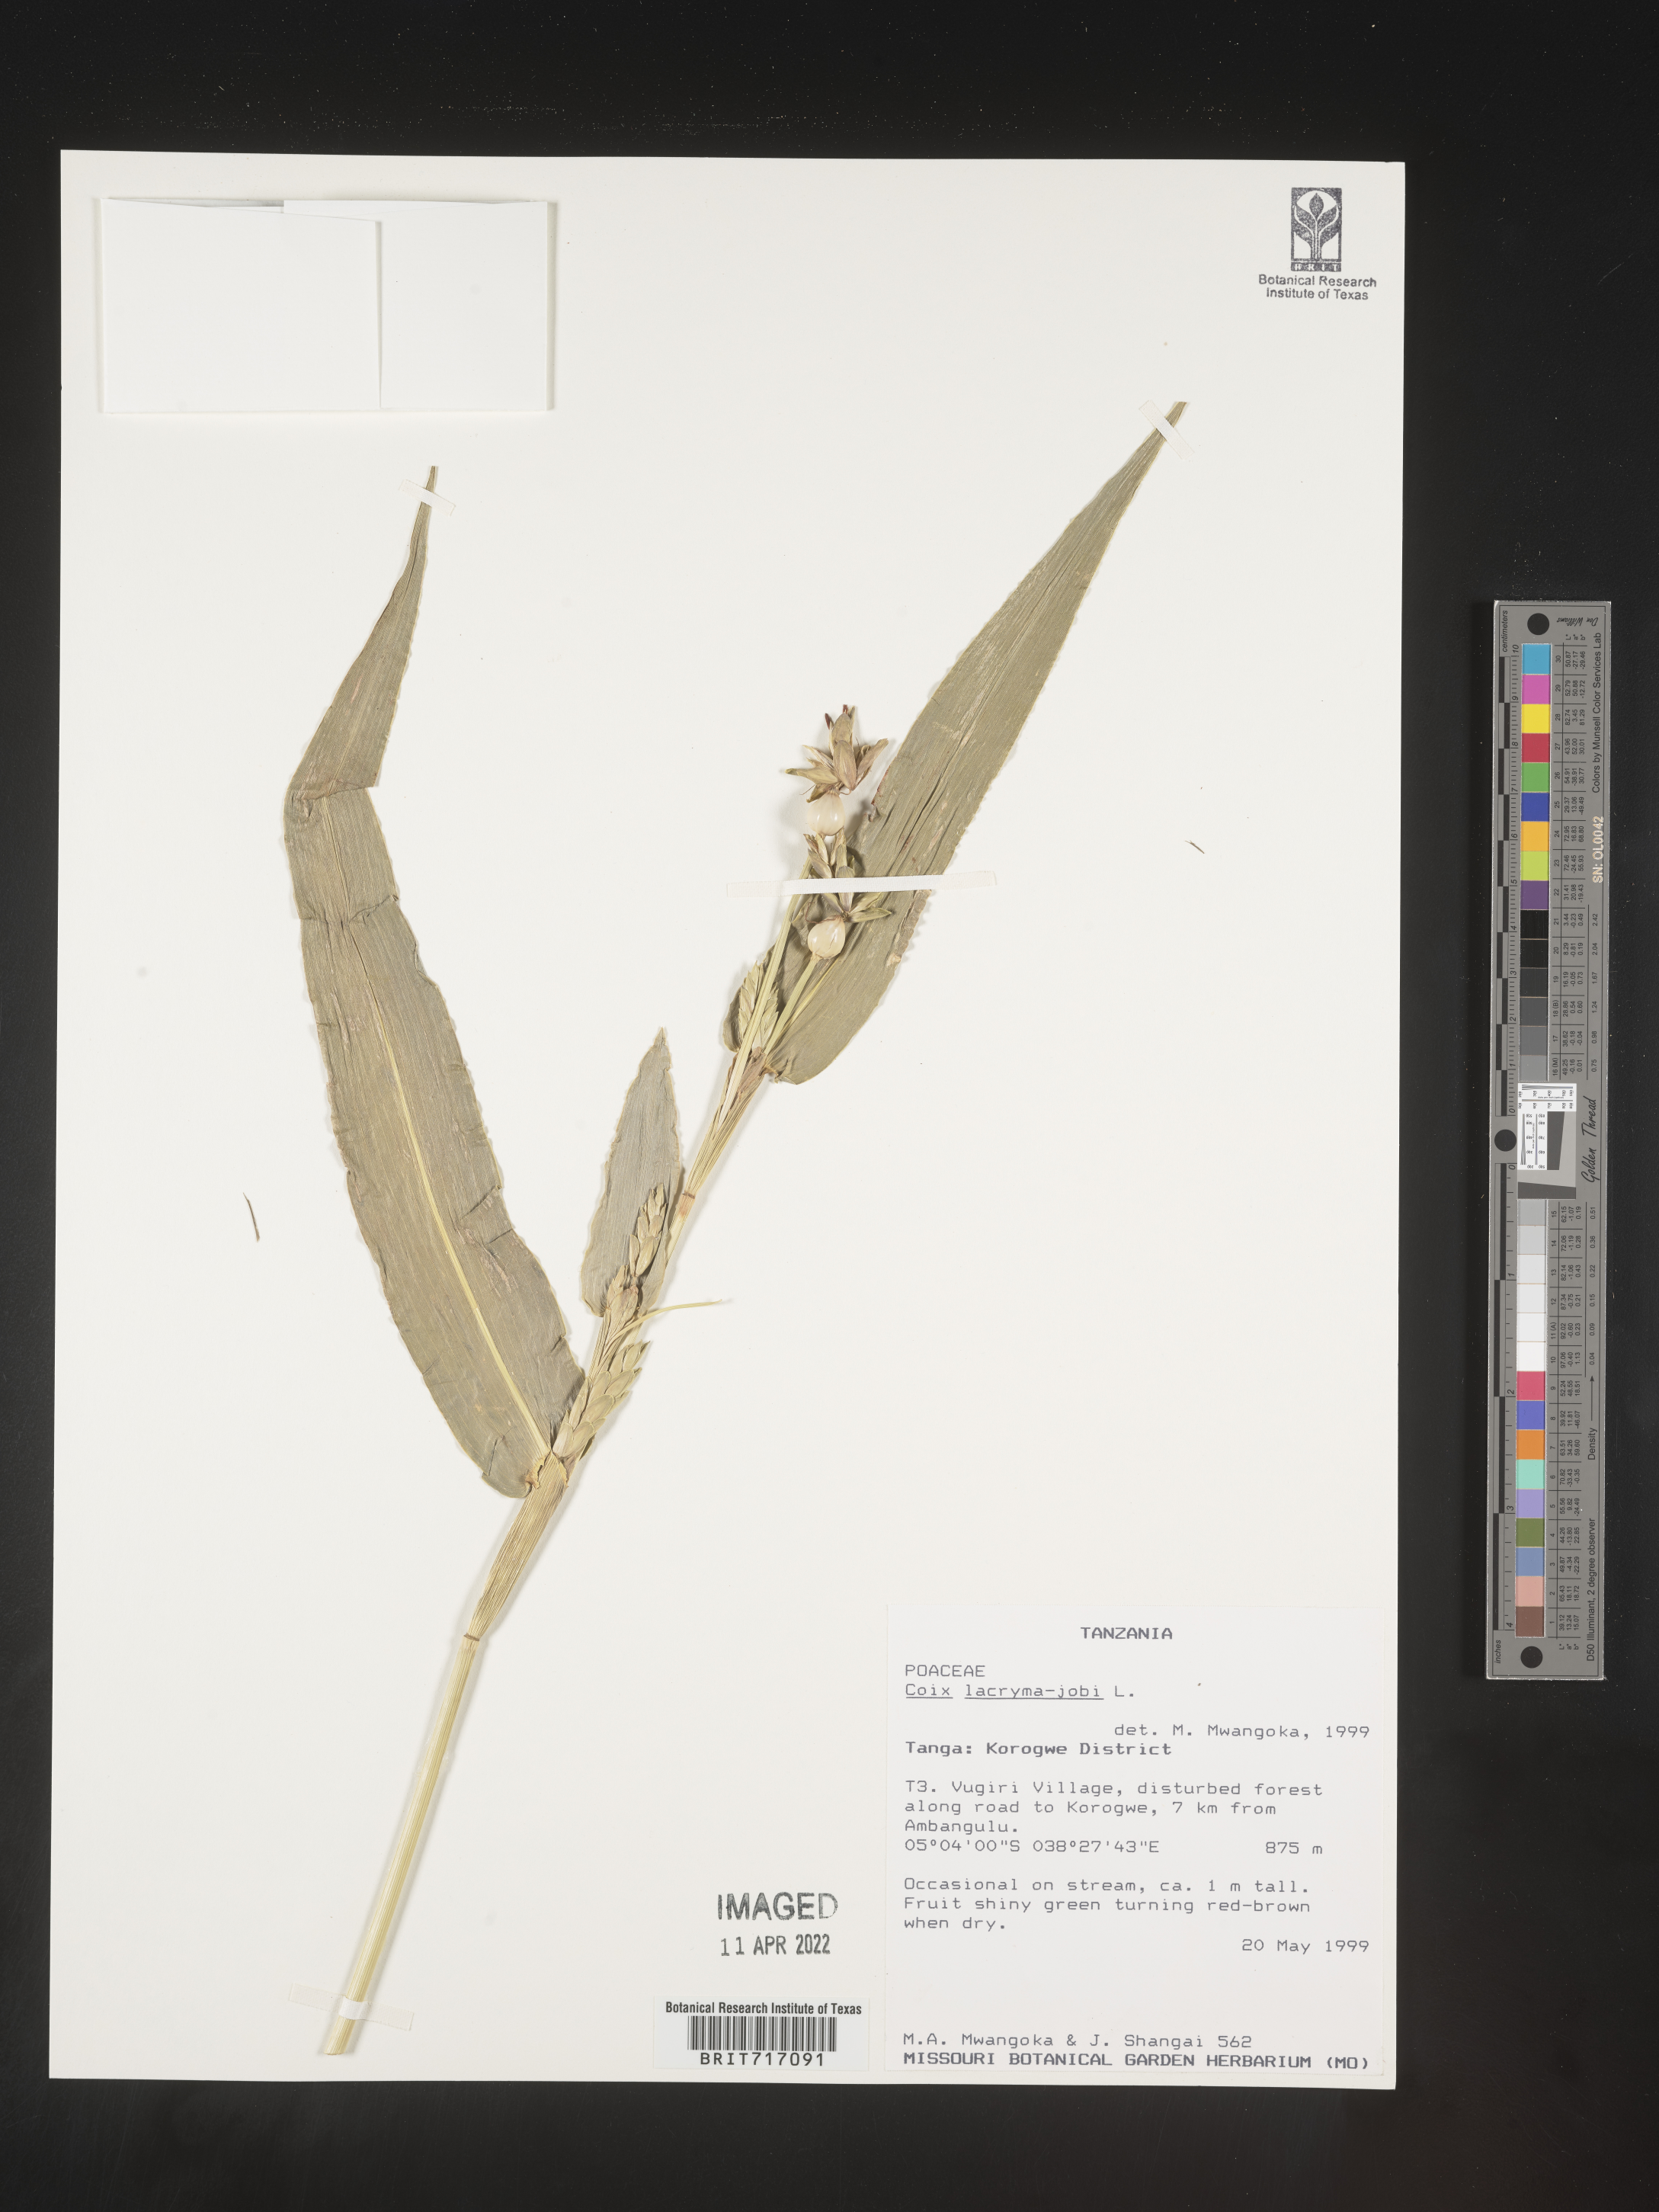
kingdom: Plantae
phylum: Tracheophyta
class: Liliopsida
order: Poales
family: Poaceae
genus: Coix
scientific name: Coix
